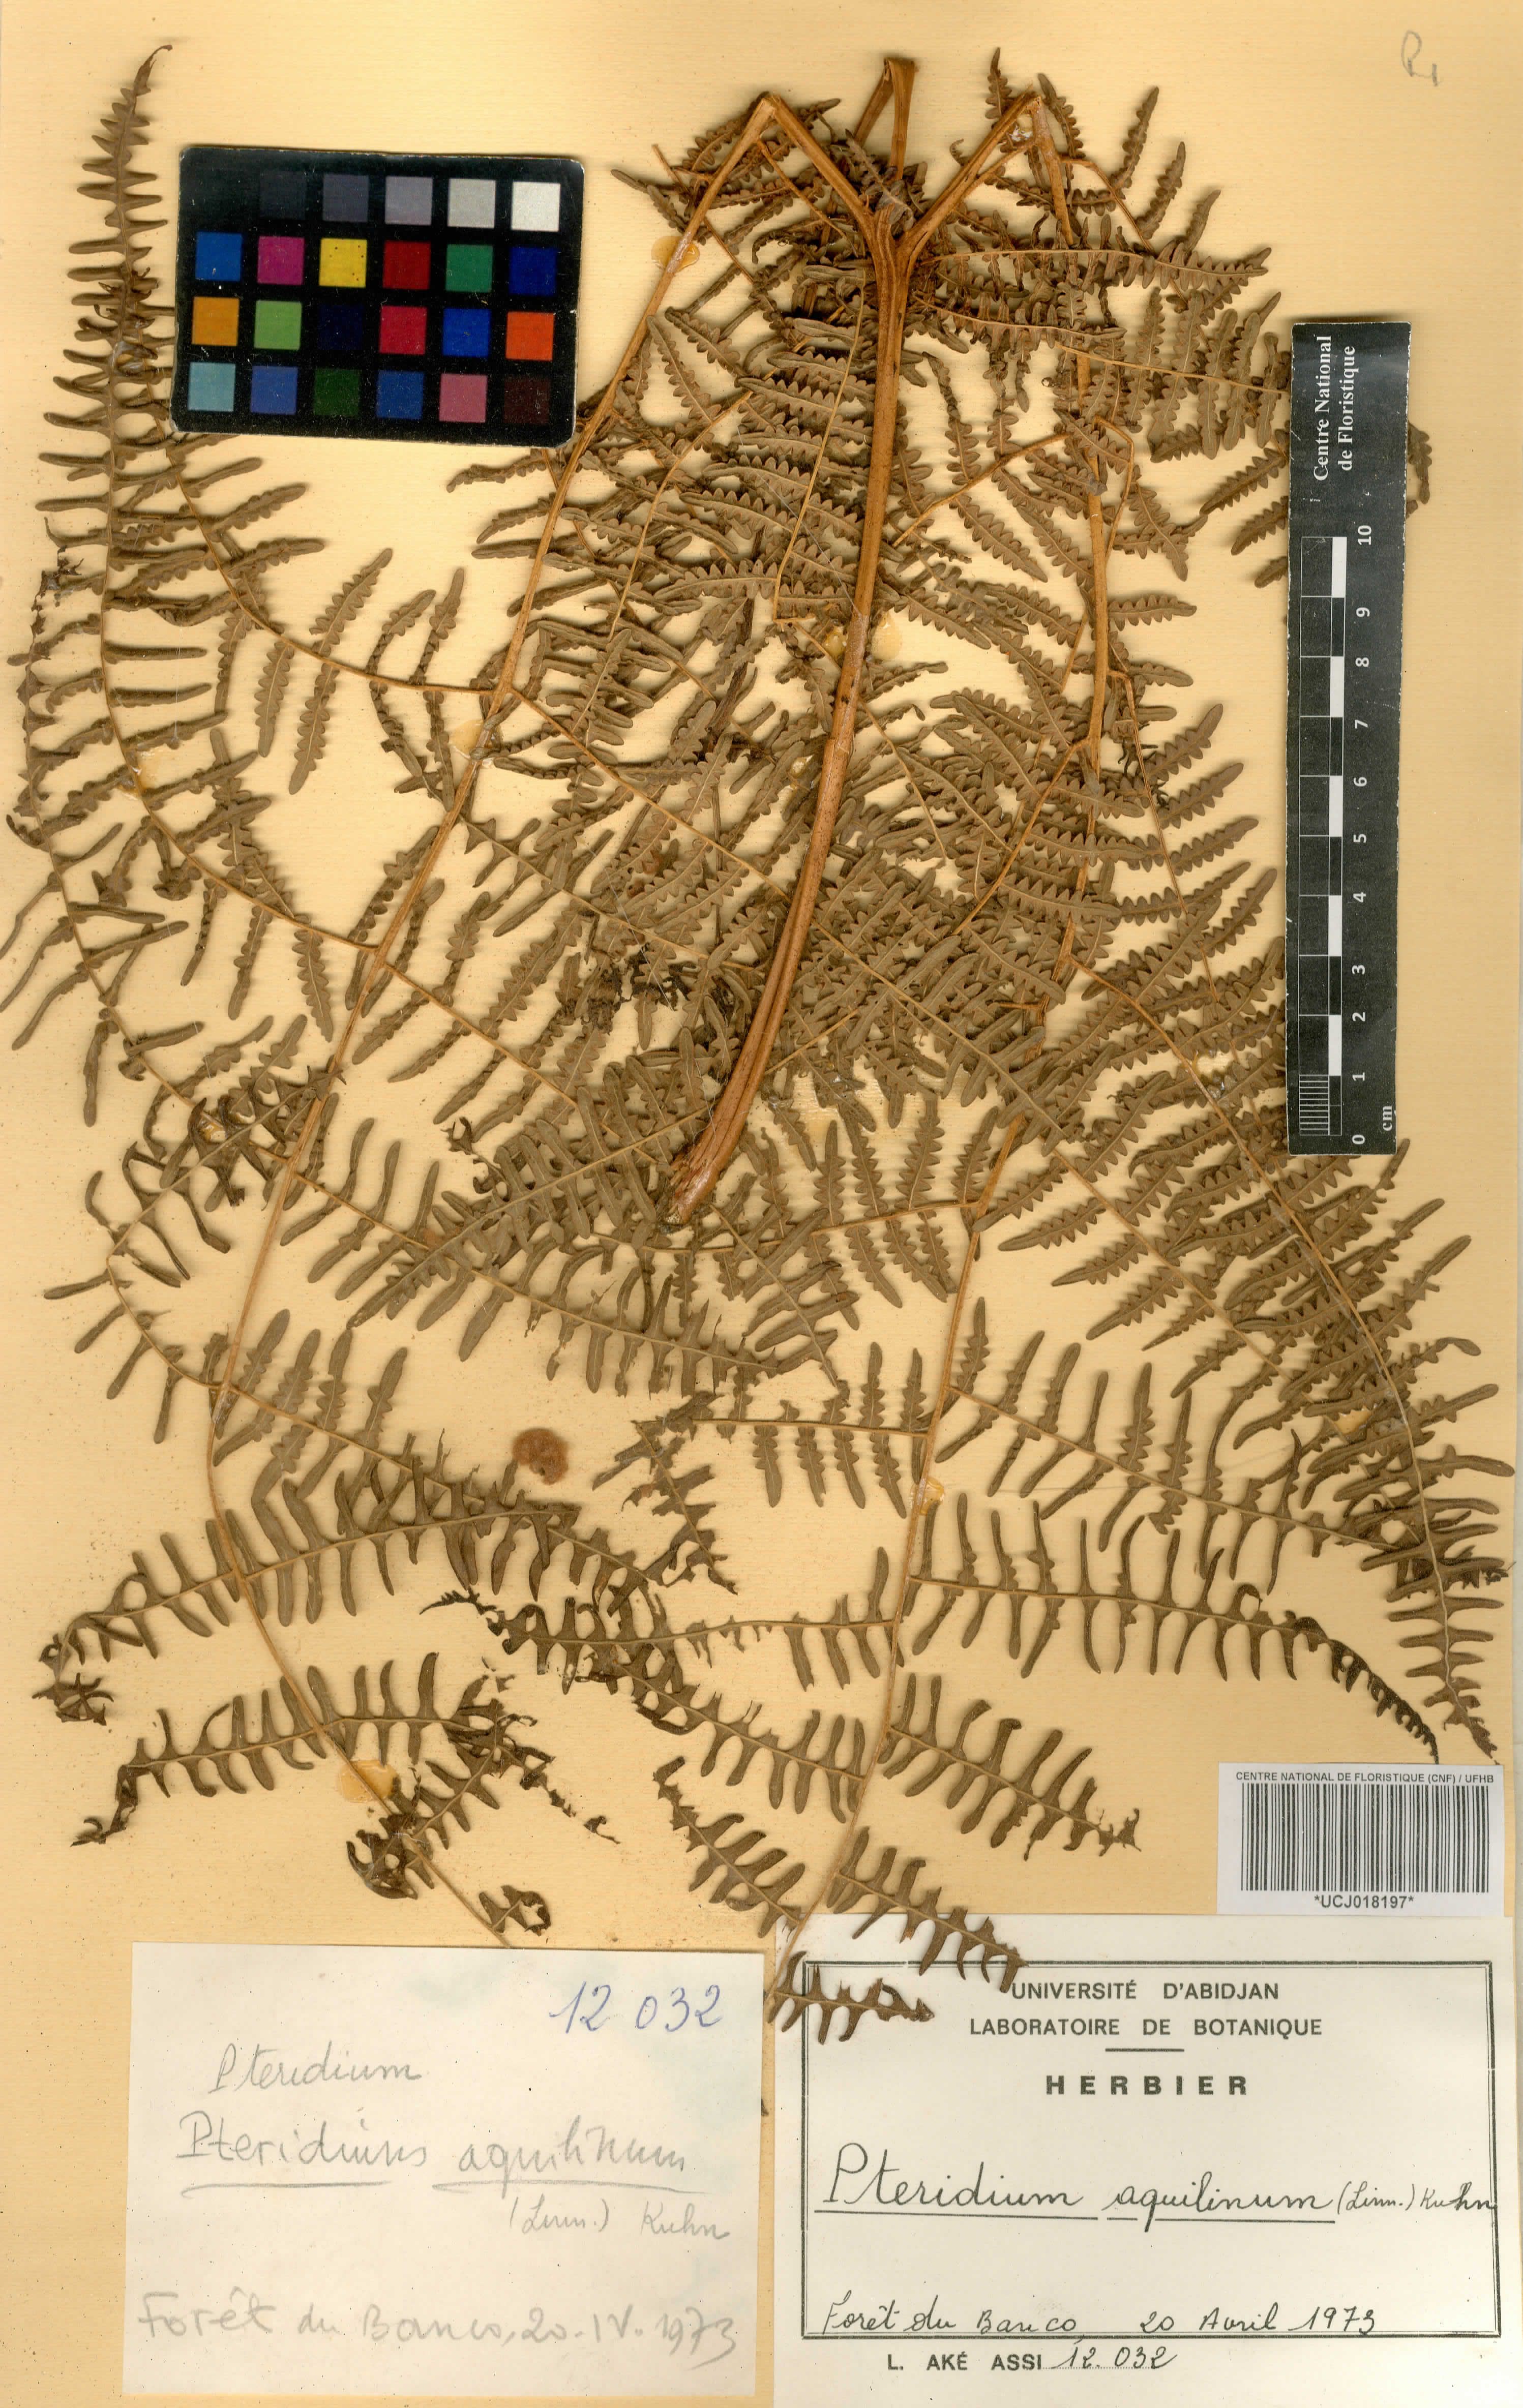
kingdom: Plantae
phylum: Tracheophyta
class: Polypodiopsida
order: Polypodiales
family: Dennstaedtiaceae
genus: Pteridium
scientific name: Pteridium aquilinum
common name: Bracken
